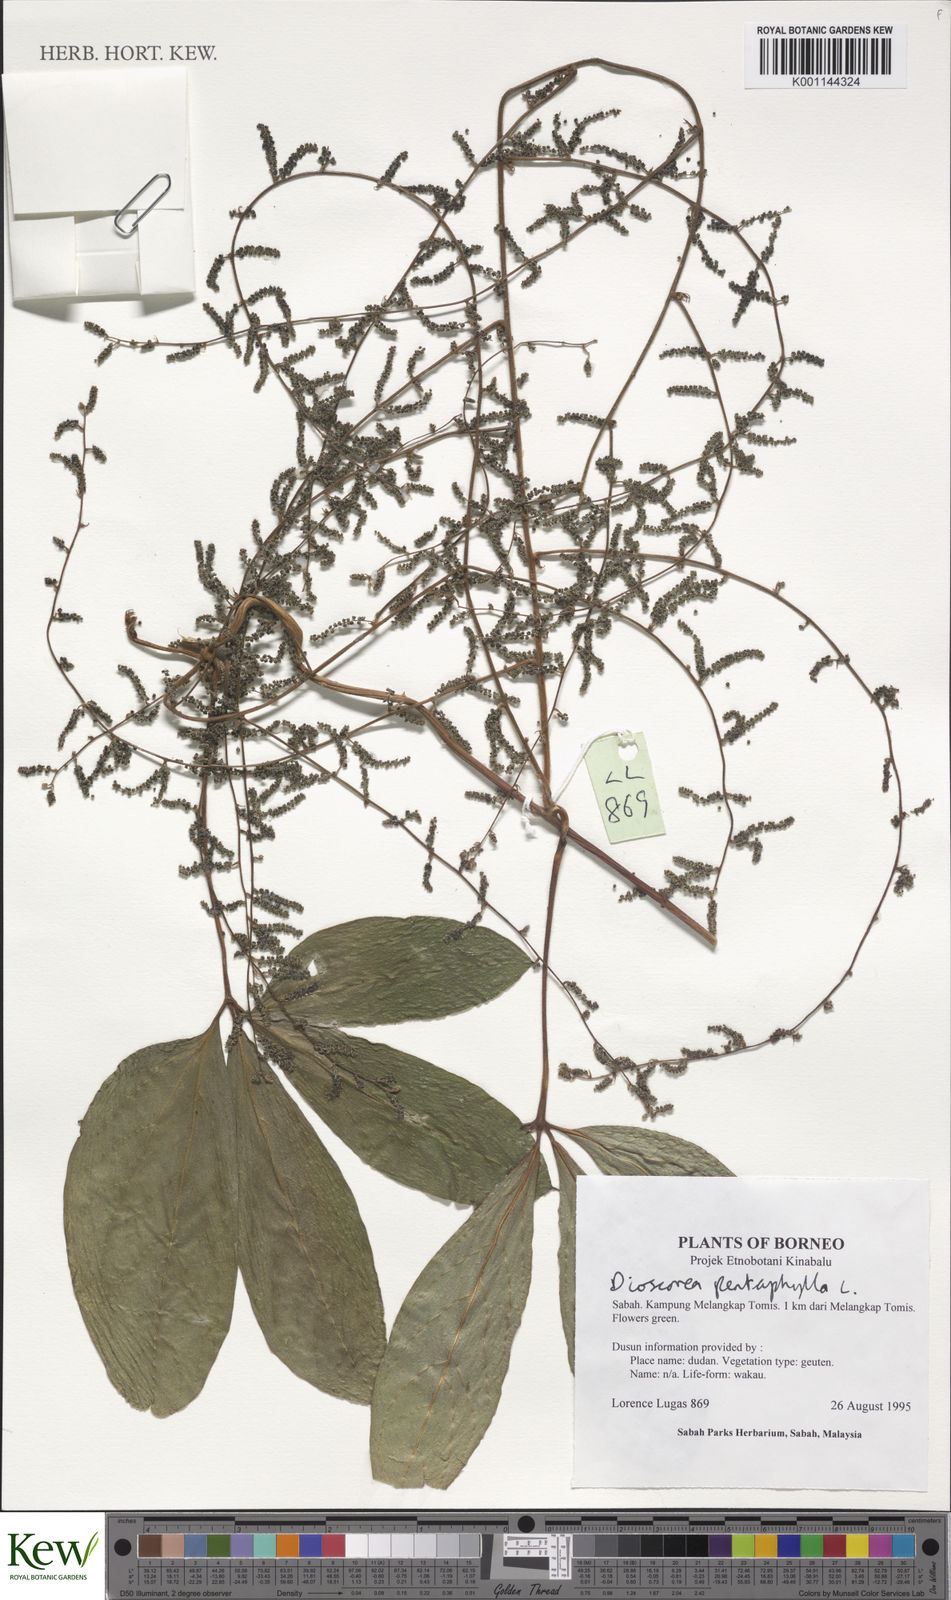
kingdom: Plantae
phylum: Tracheophyta
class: Liliopsida
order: Dioscoreales
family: Dioscoreaceae
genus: Dioscorea
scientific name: Dioscorea pentaphylla
